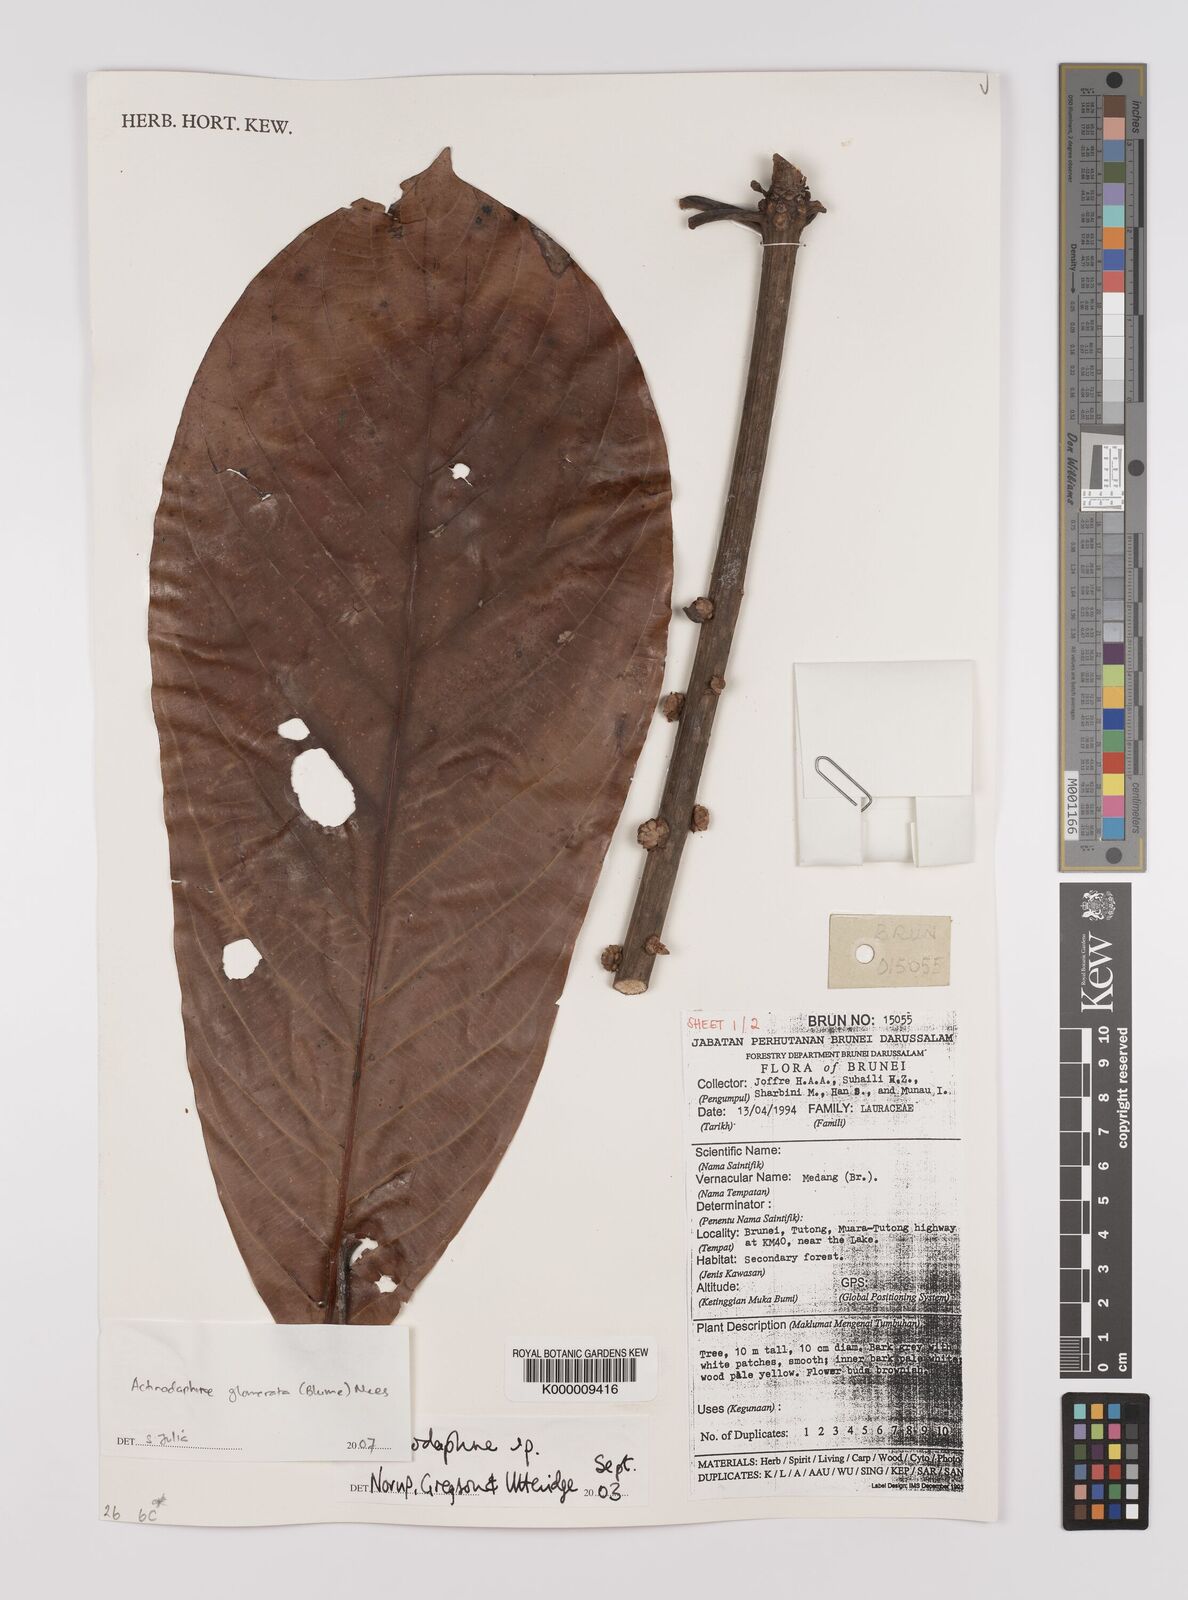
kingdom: Plantae
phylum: Tracheophyta
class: Magnoliopsida
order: Laurales
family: Lauraceae
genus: Actinodaphne
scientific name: Actinodaphne glomerata
